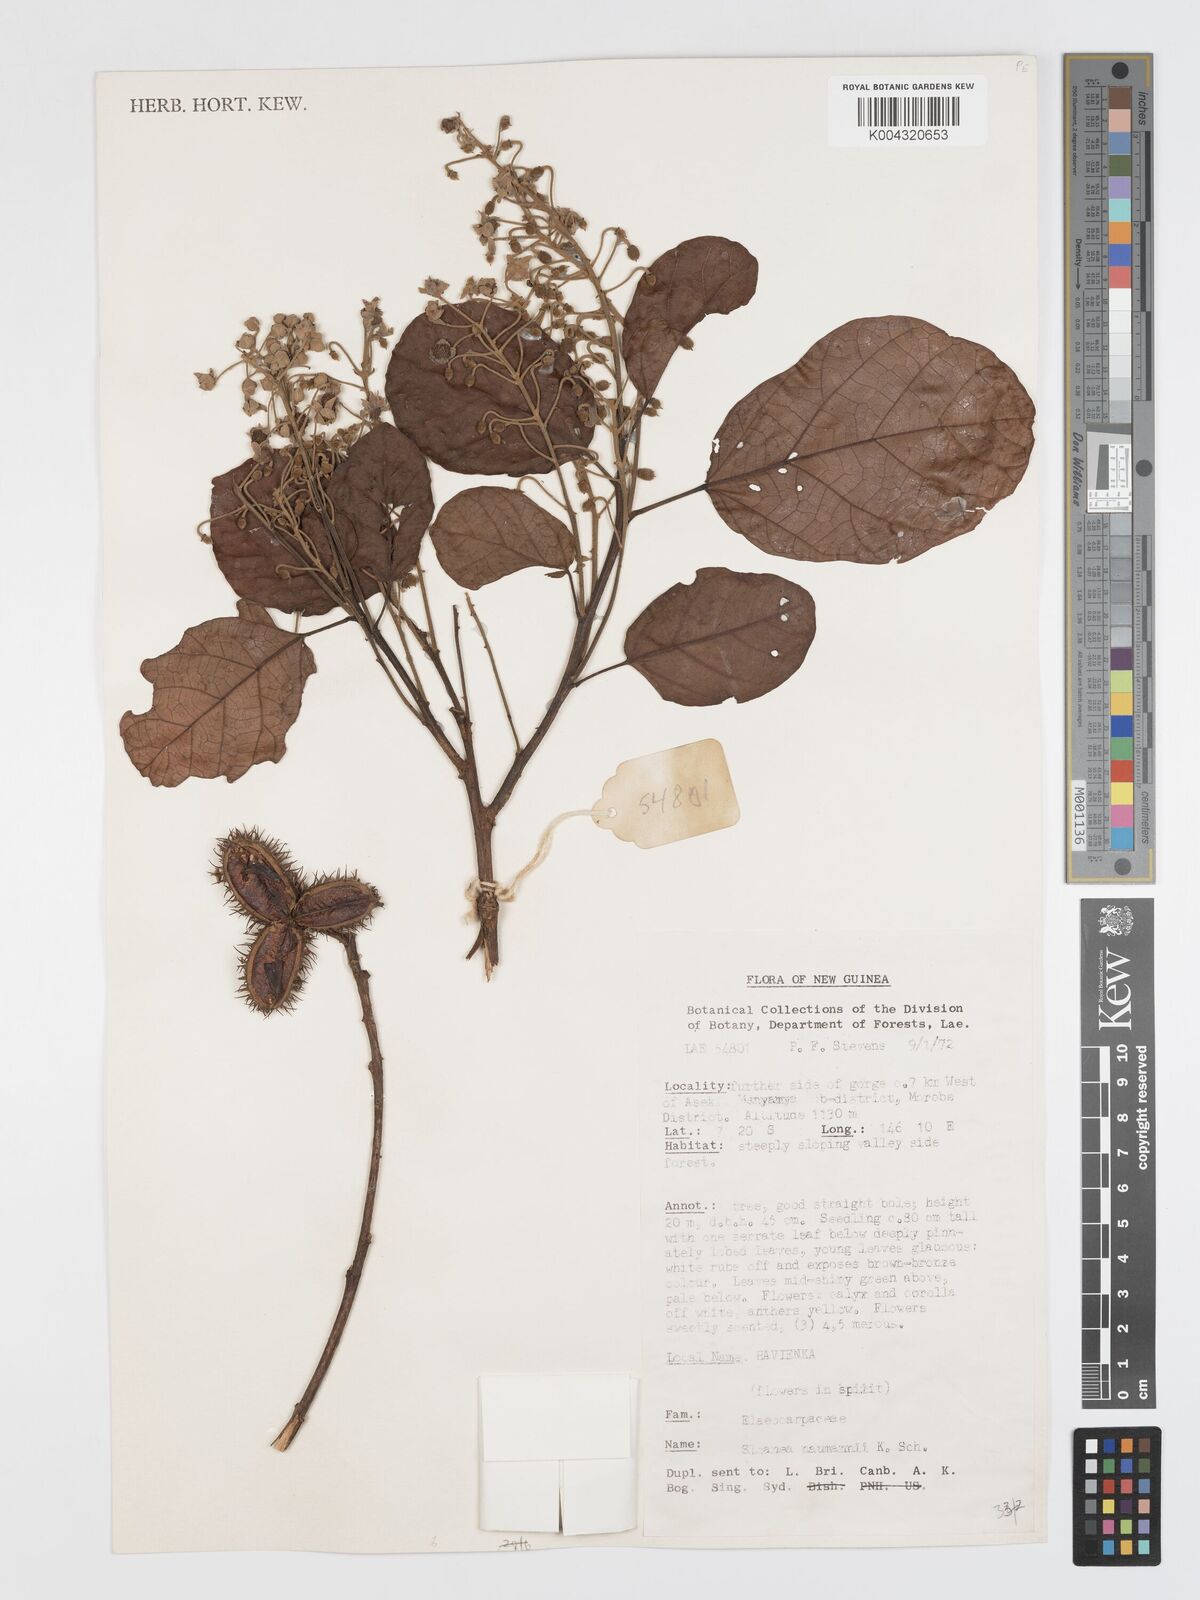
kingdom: Plantae
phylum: Tracheophyta
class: Magnoliopsida
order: Oxalidales
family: Elaeocarpaceae
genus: Sloanea
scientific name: Sloanea nymanii
